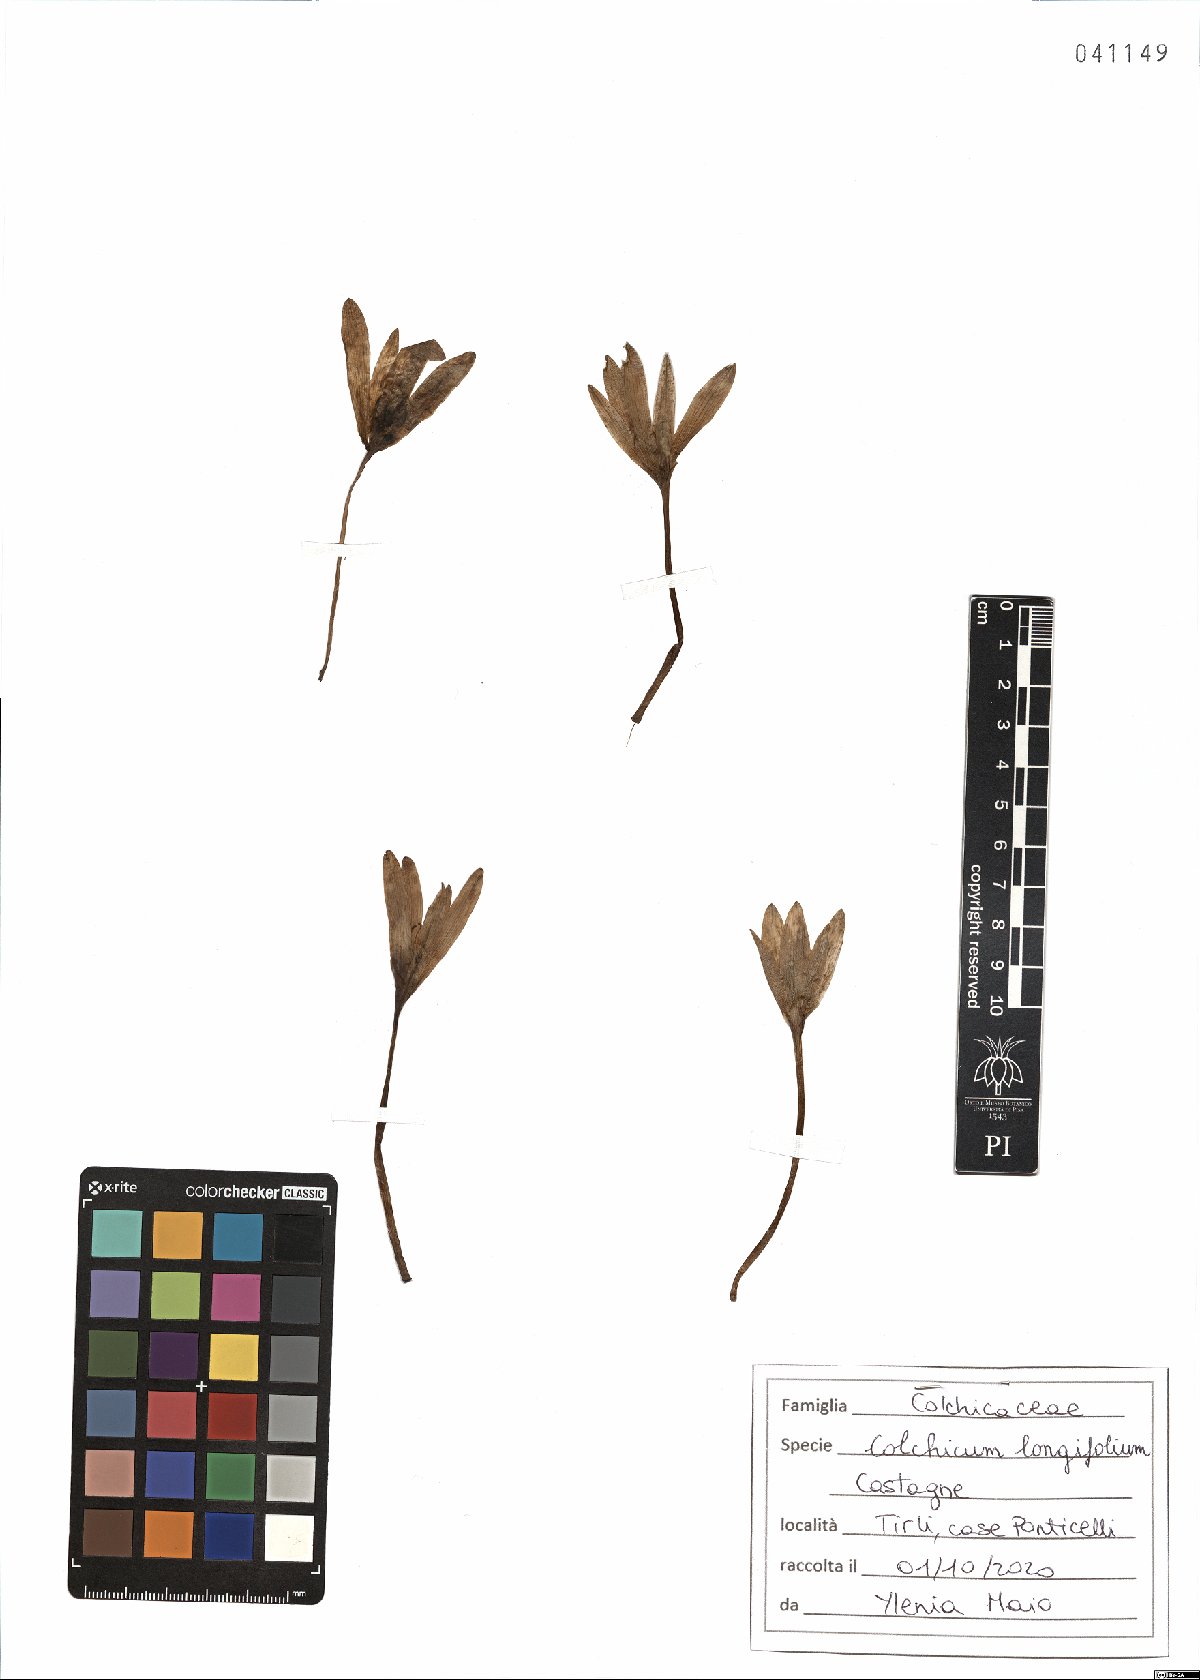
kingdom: Plantae
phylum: Tracheophyta
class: Liliopsida
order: Liliales
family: Colchicaceae
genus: Colchicum
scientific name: Colchicum longifolium
